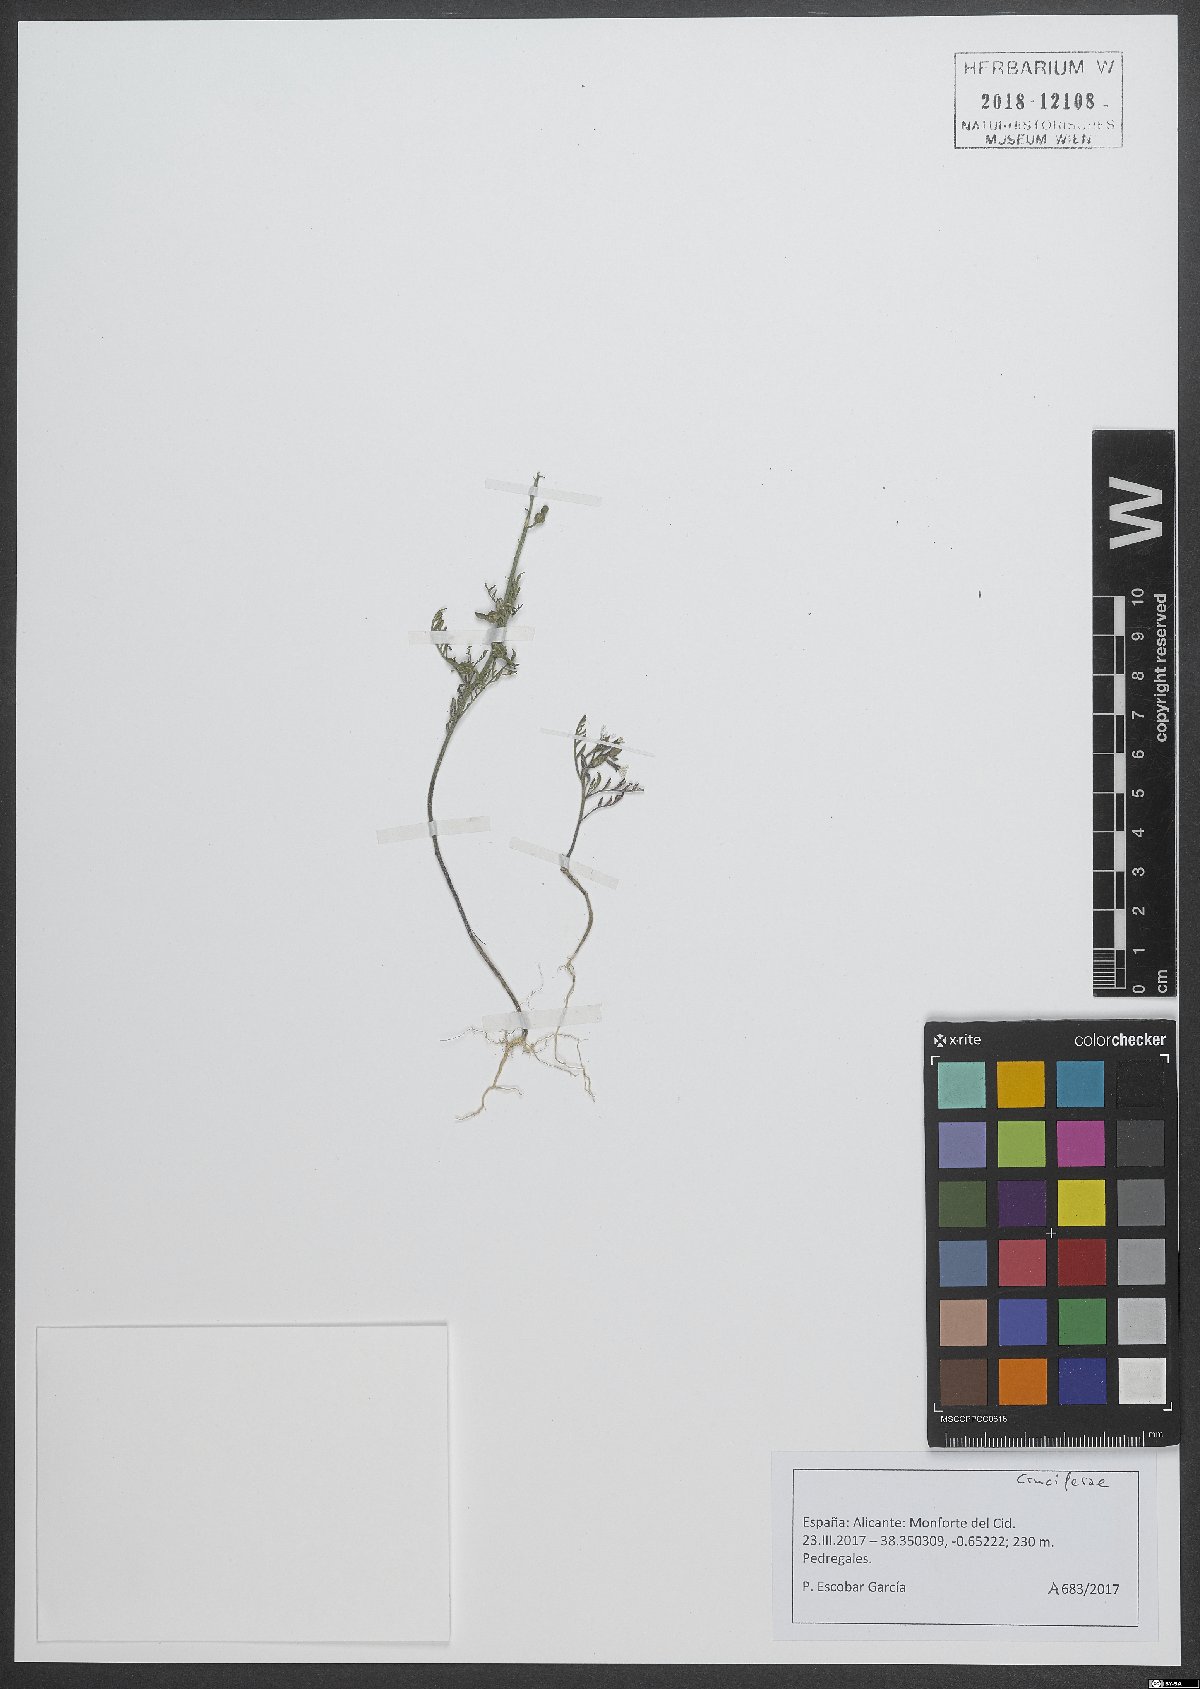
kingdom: Plantae
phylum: Tracheophyta
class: Magnoliopsida
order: Brassicales
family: Brassicaceae
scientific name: Brassicaceae
